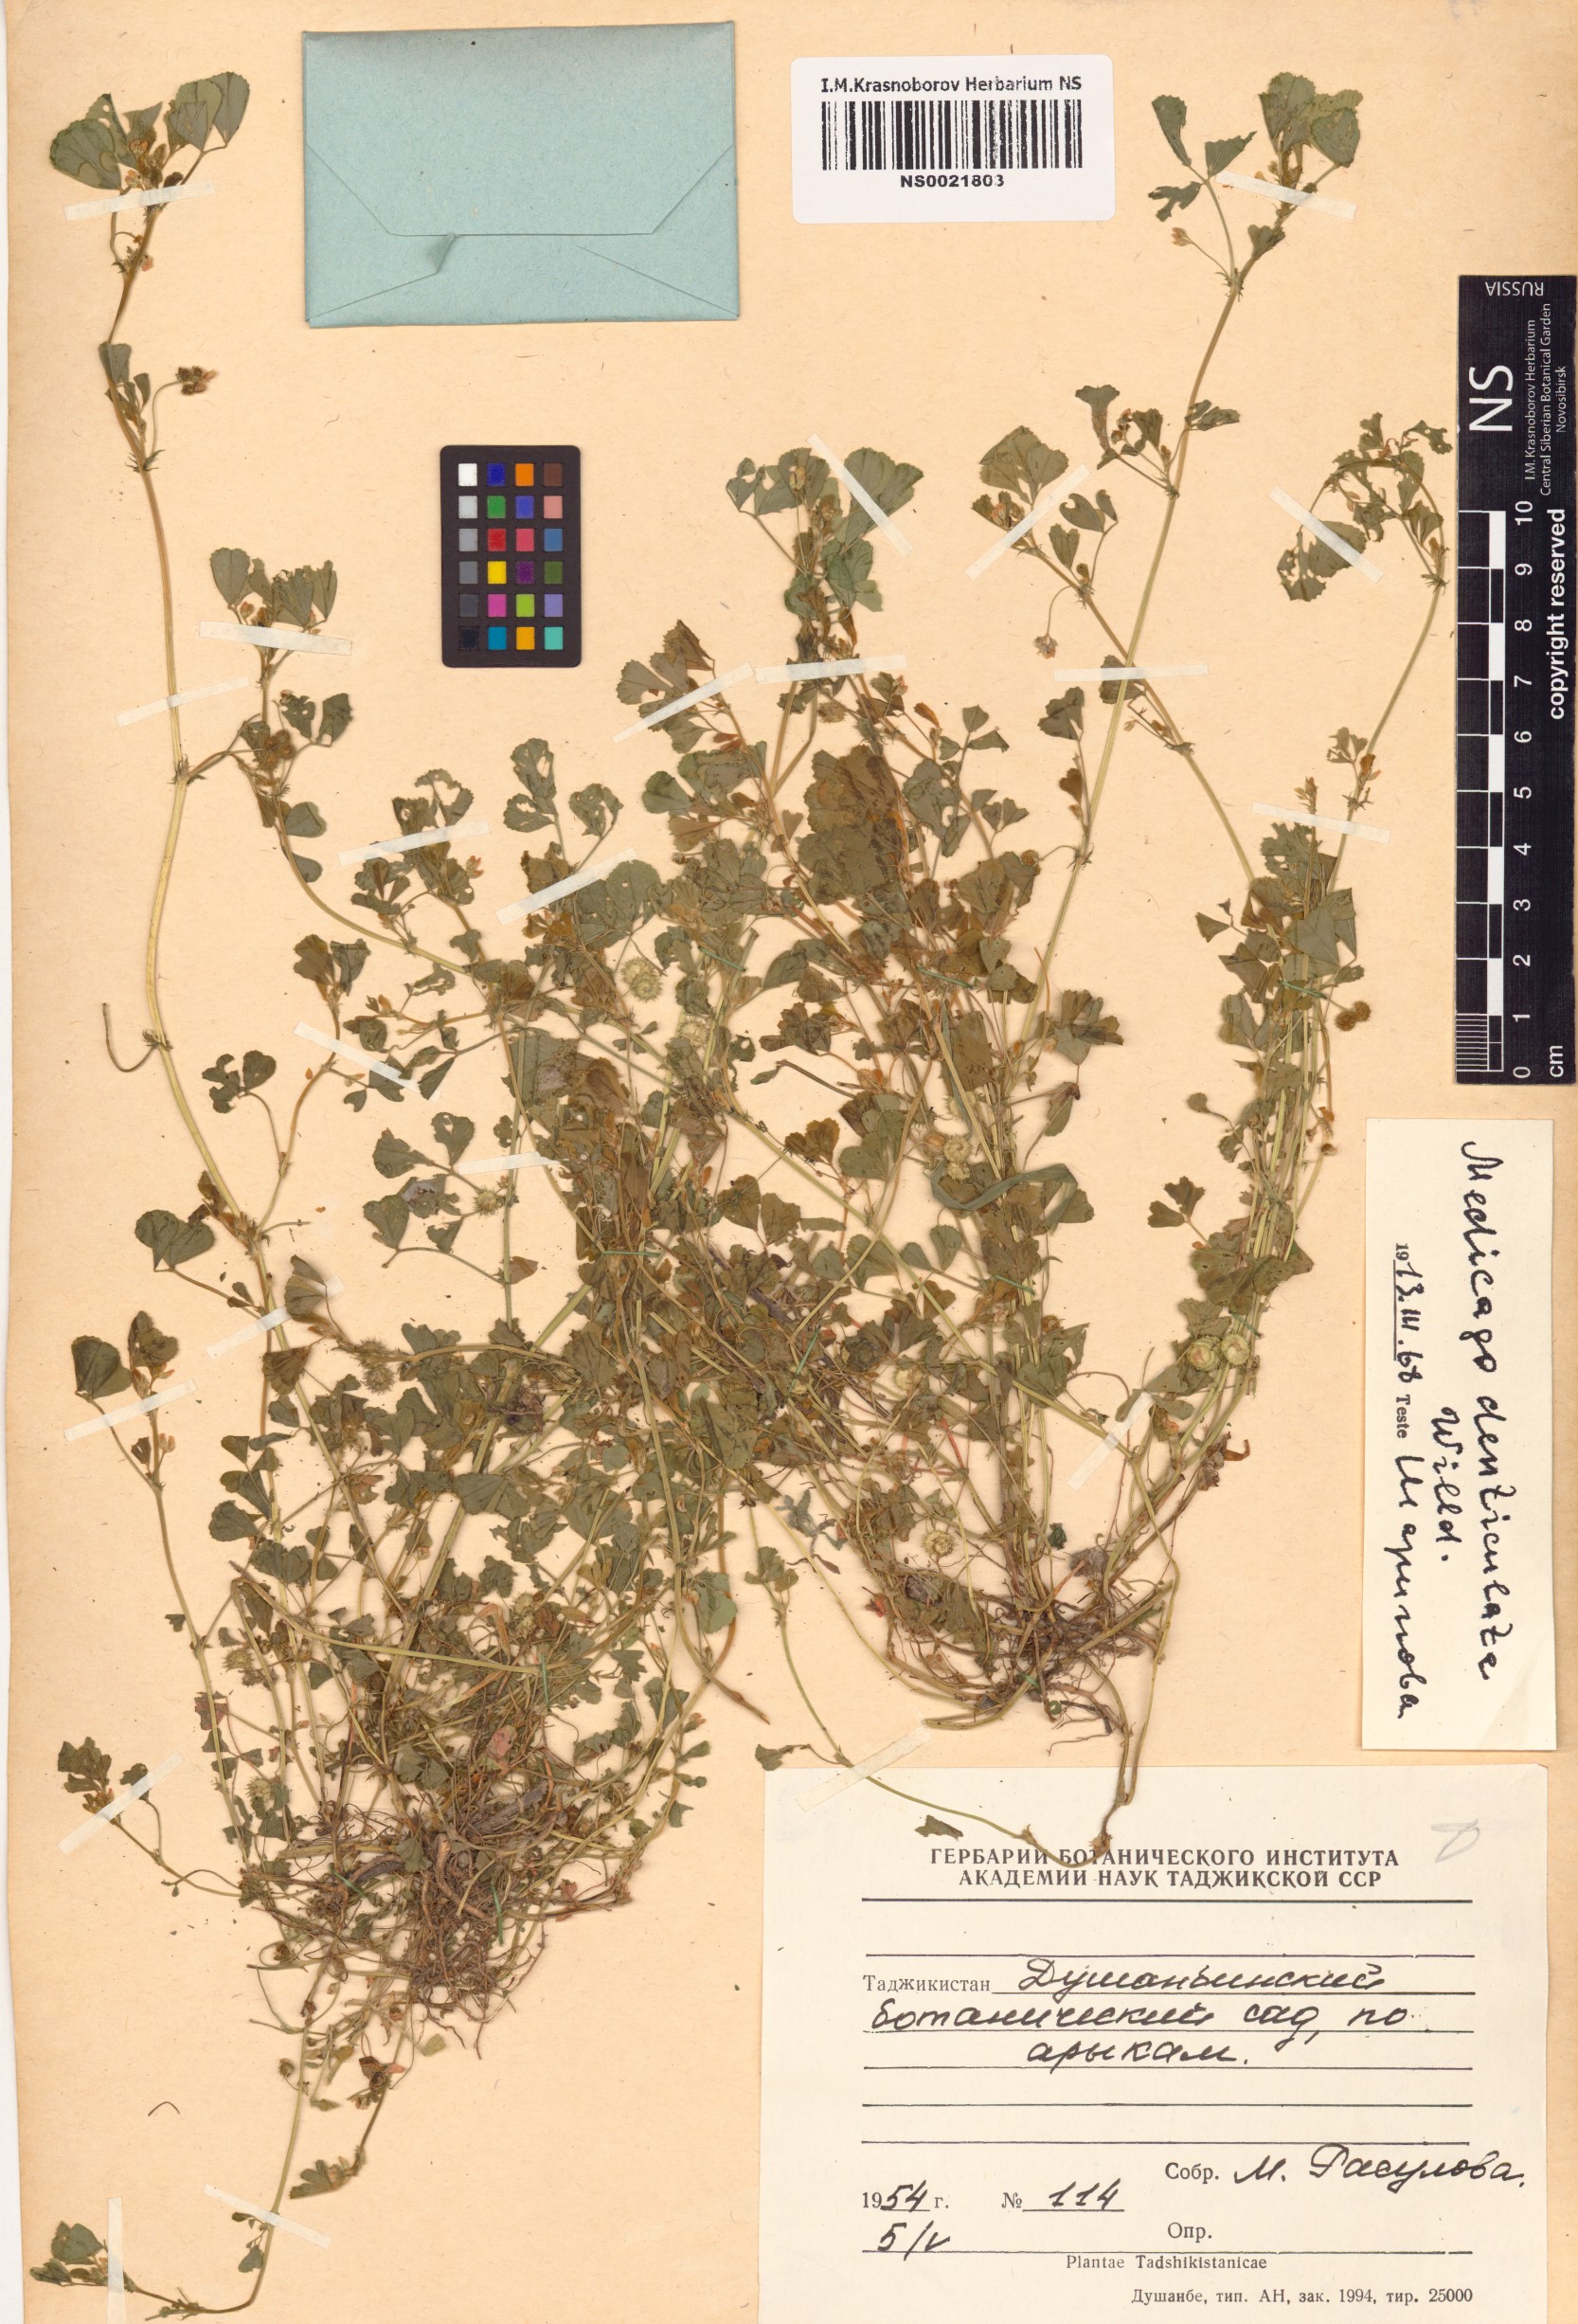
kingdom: Plantae
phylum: Tracheophyta
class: Magnoliopsida
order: Fabales
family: Fabaceae
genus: Medicago
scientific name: Medicago polymorpha
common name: Burclover
